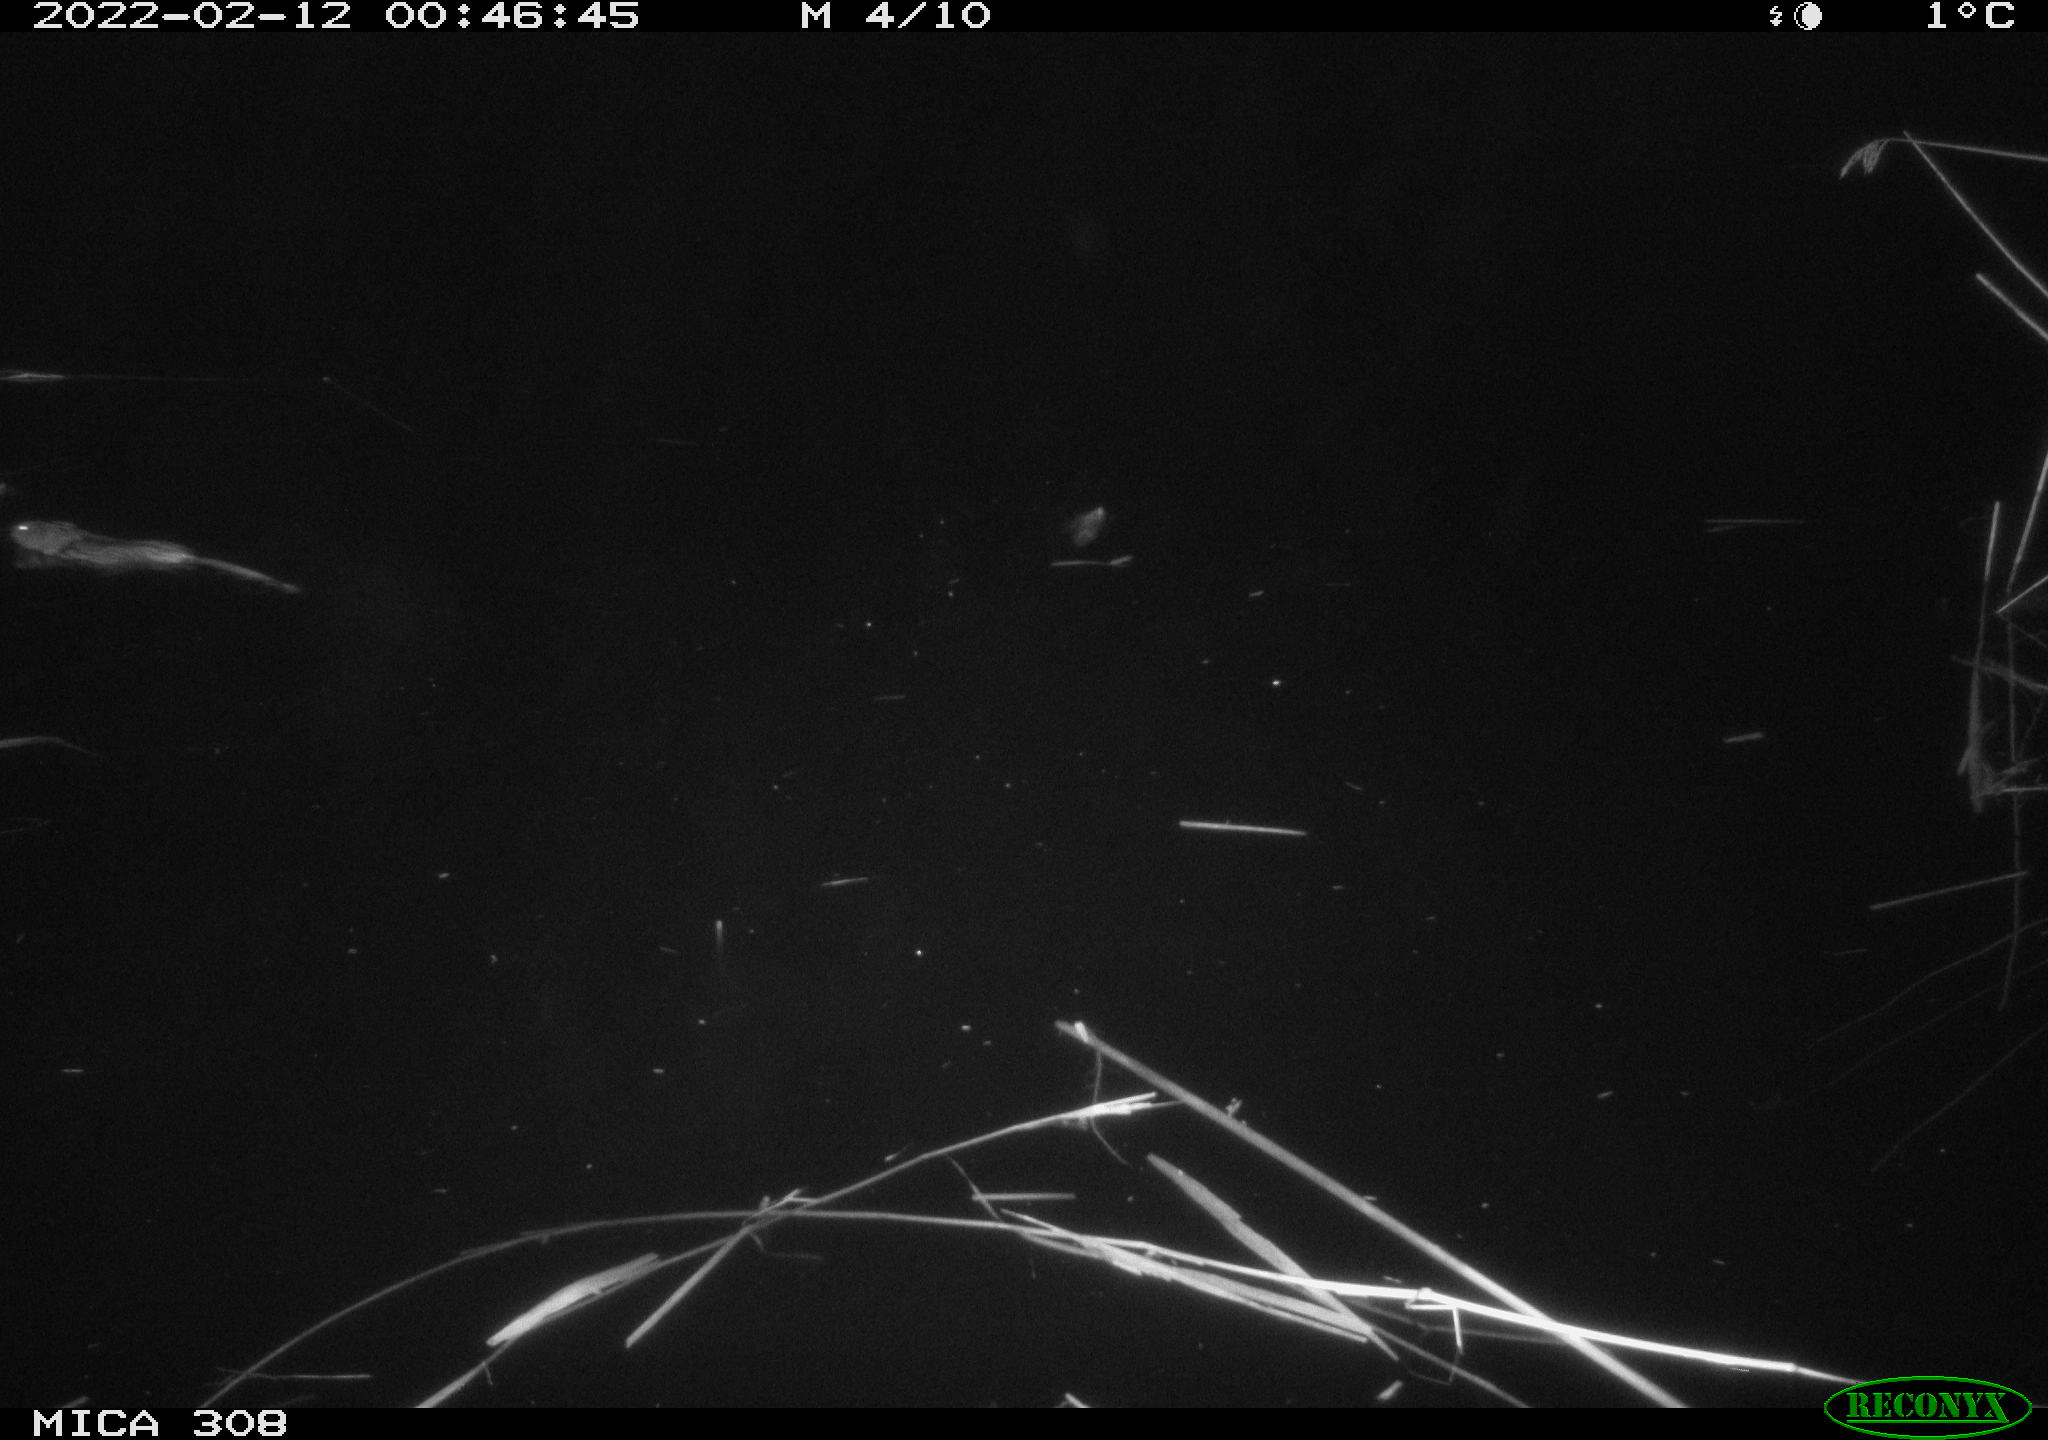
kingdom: Animalia
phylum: Chordata
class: Mammalia
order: Rodentia
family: Cricetidae
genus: Ondatra
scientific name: Ondatra zibethicus
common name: Muskrat
